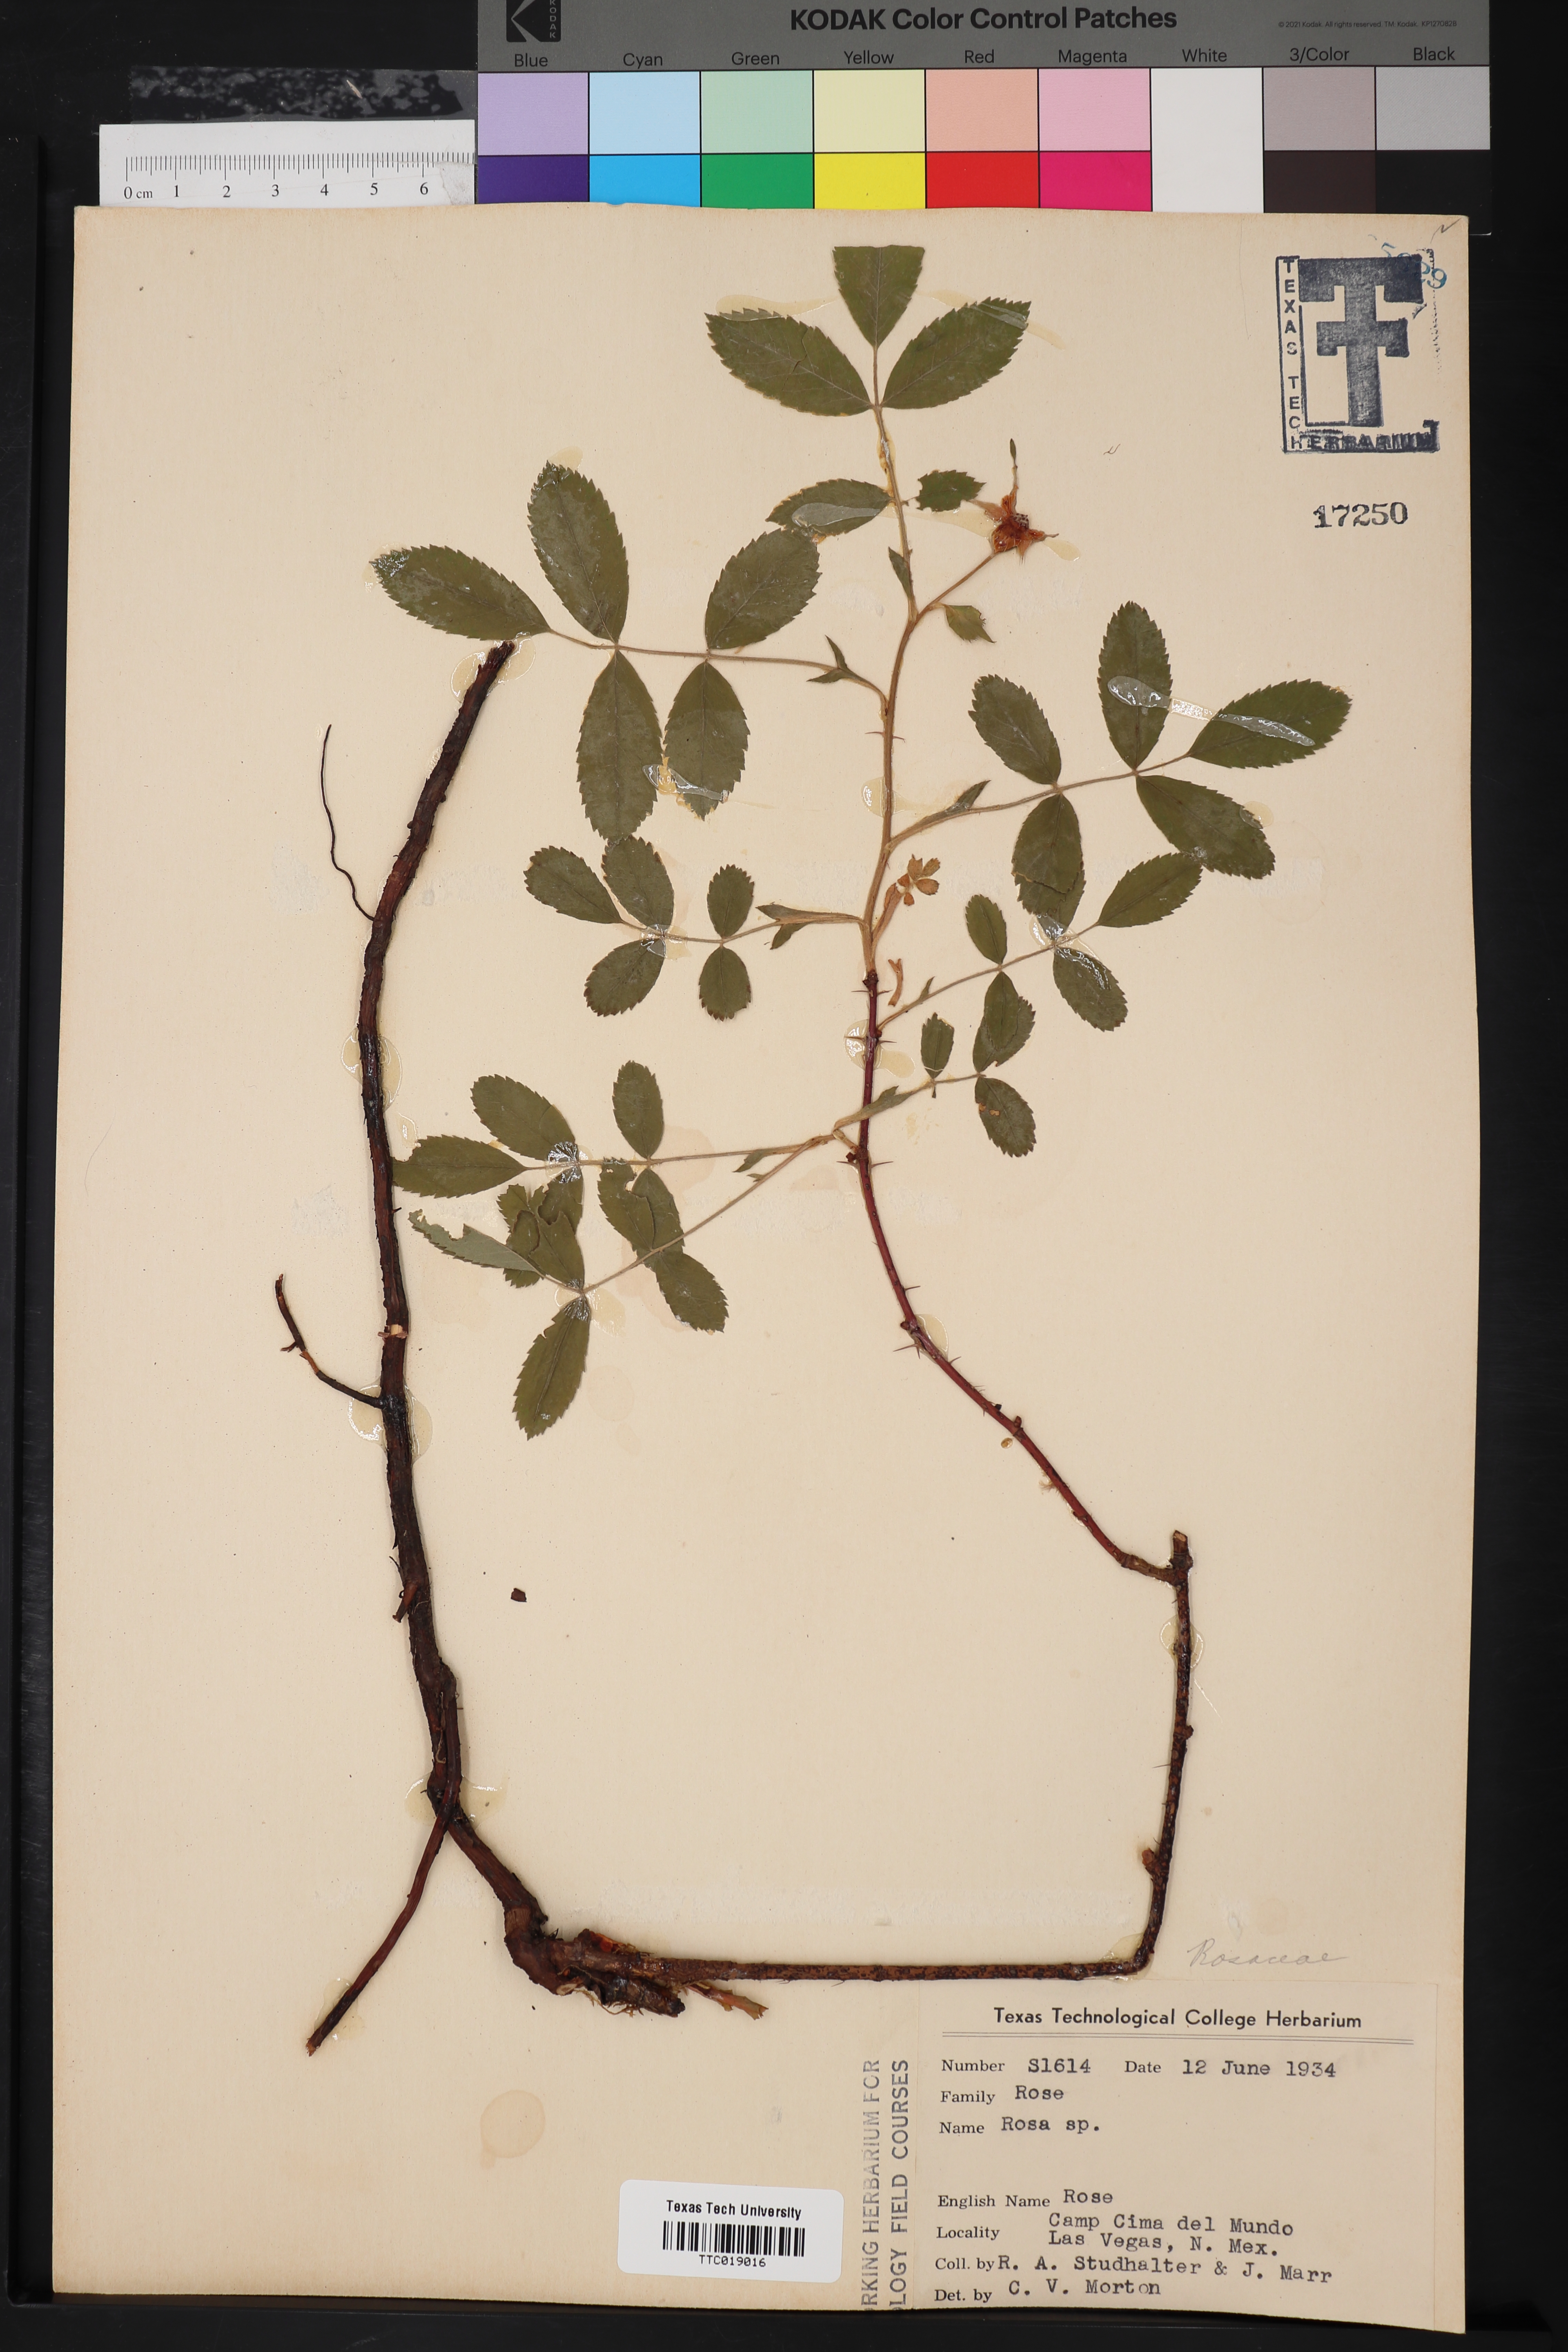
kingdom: Plantae
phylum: Tracheophyta
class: Magnoliopsida
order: Rosales
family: Rosaceae
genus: Rosa
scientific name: Rosa
